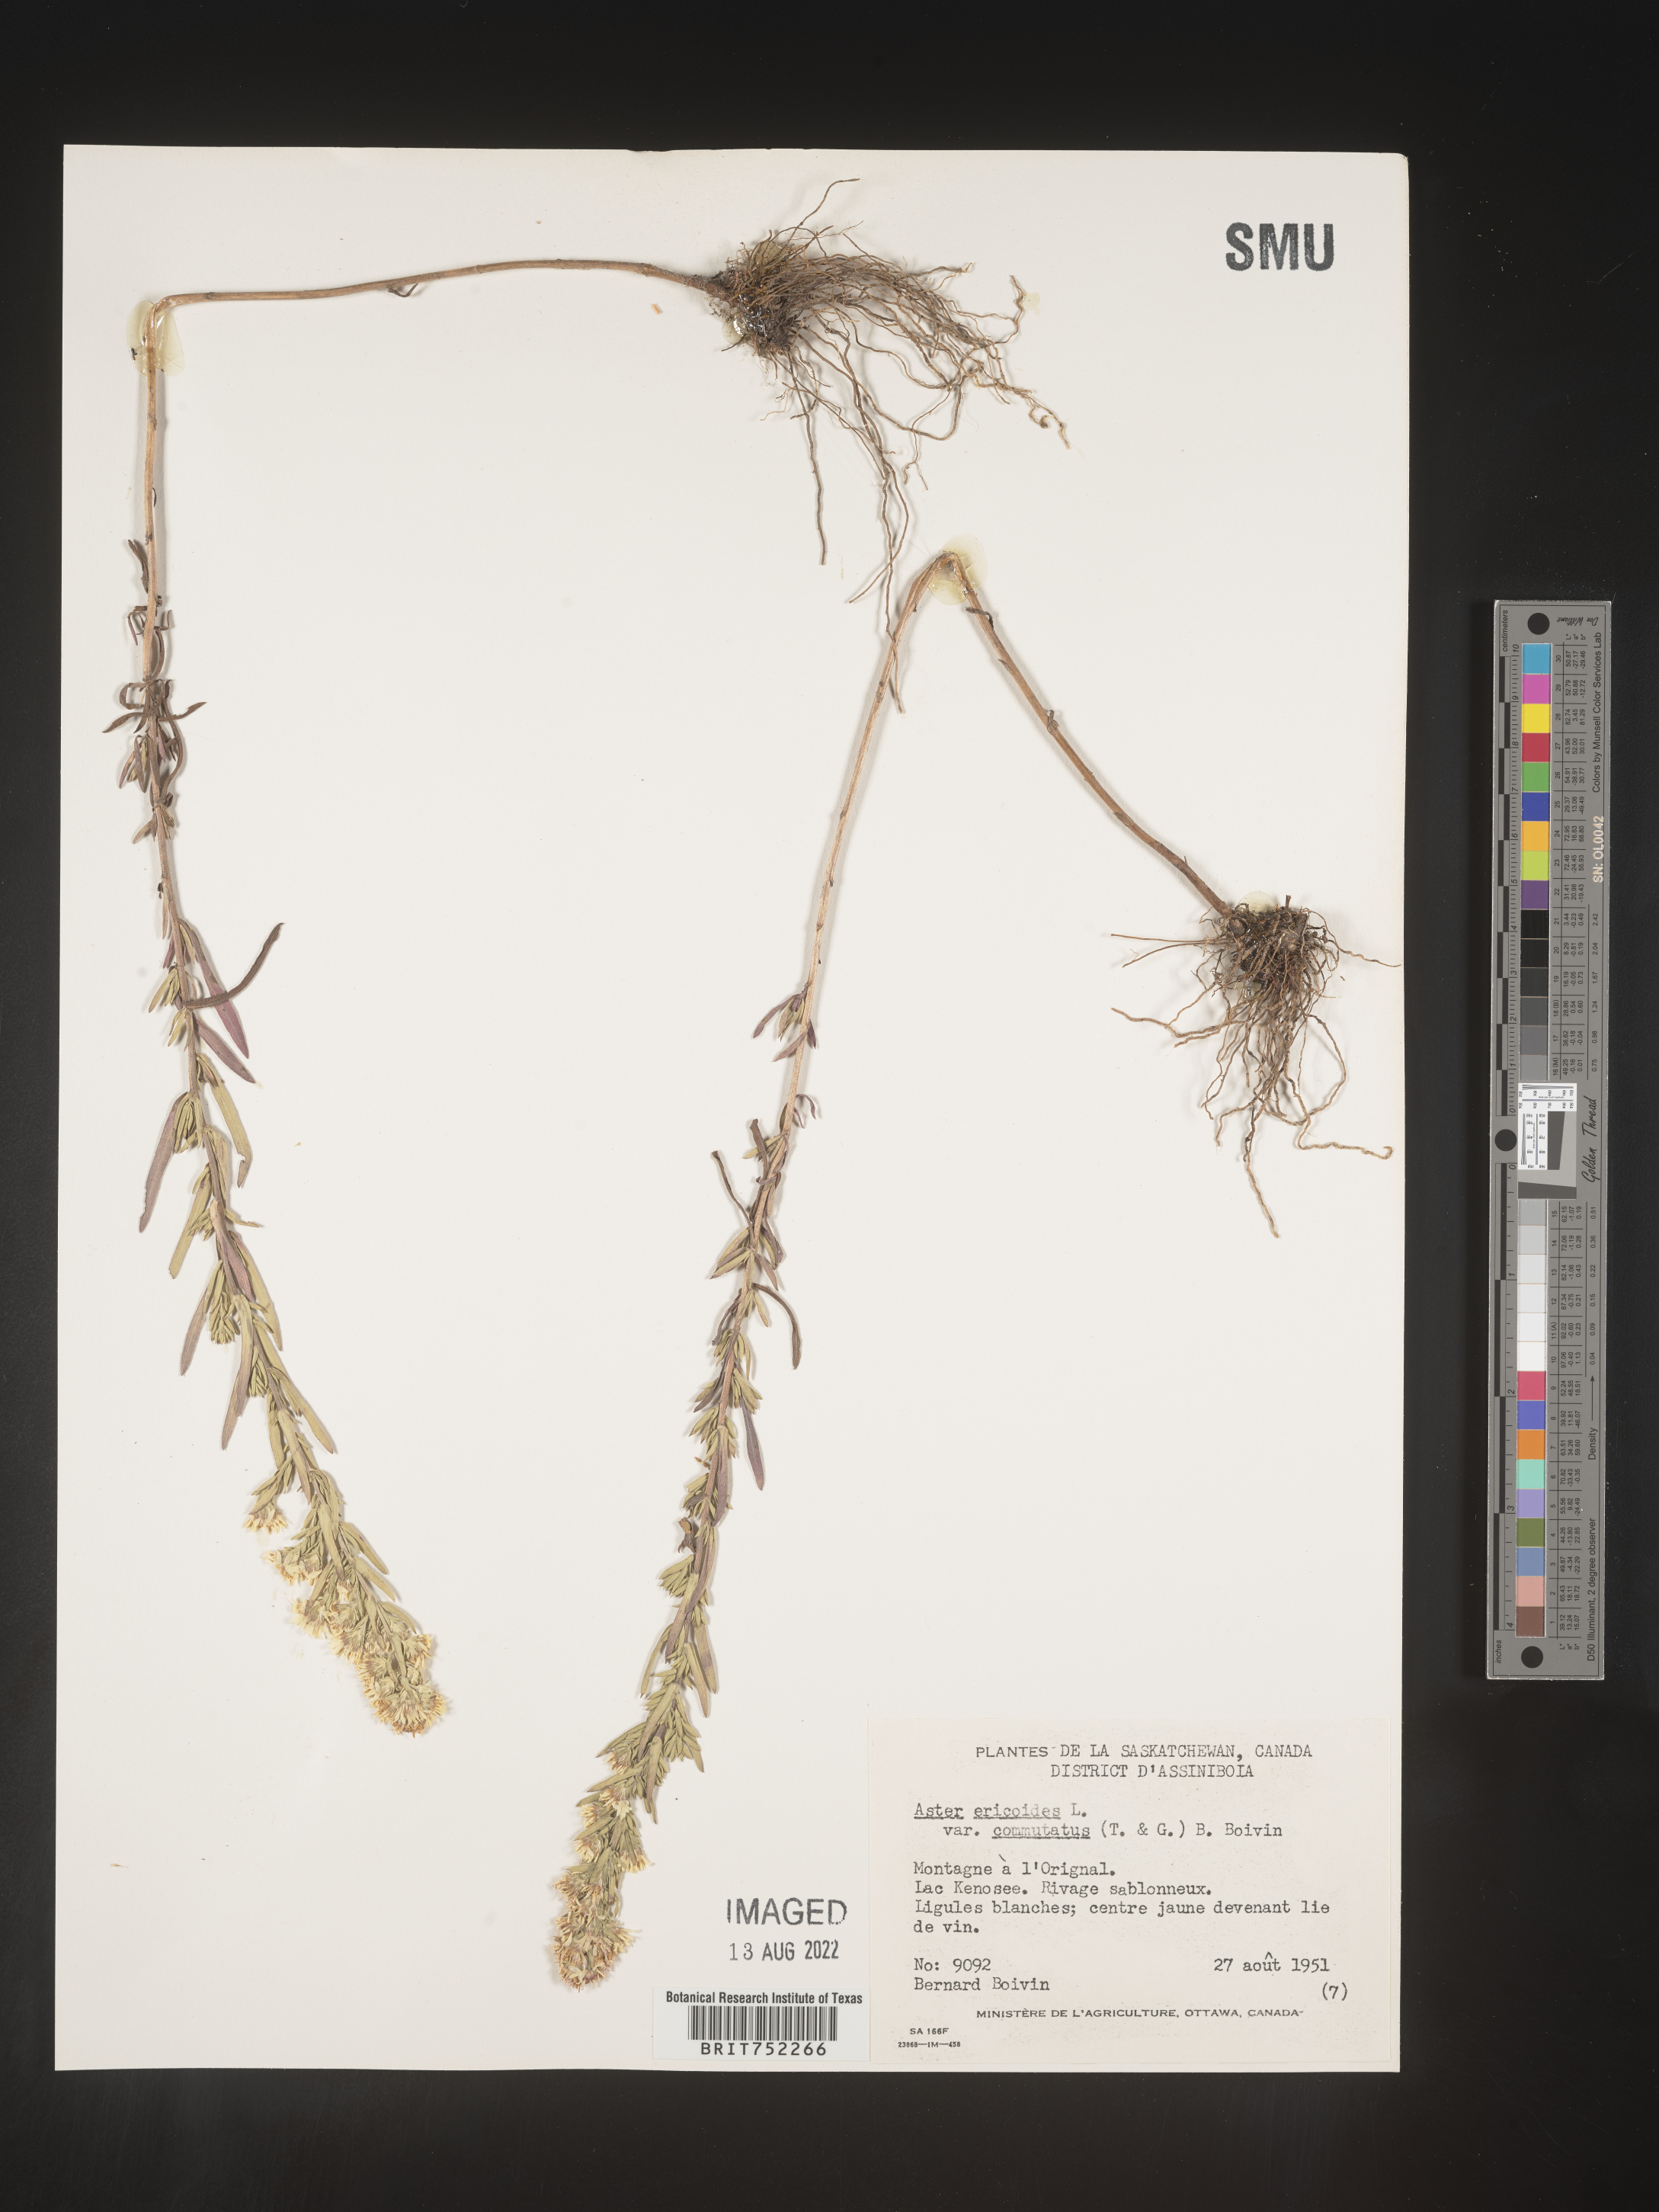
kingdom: Plantae
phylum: Tracheophyta
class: Magnoliopsida
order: Asterales
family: Asteraceae
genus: Symphyotrichum
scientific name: Symphyotrichum ericoides
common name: Heath aster
